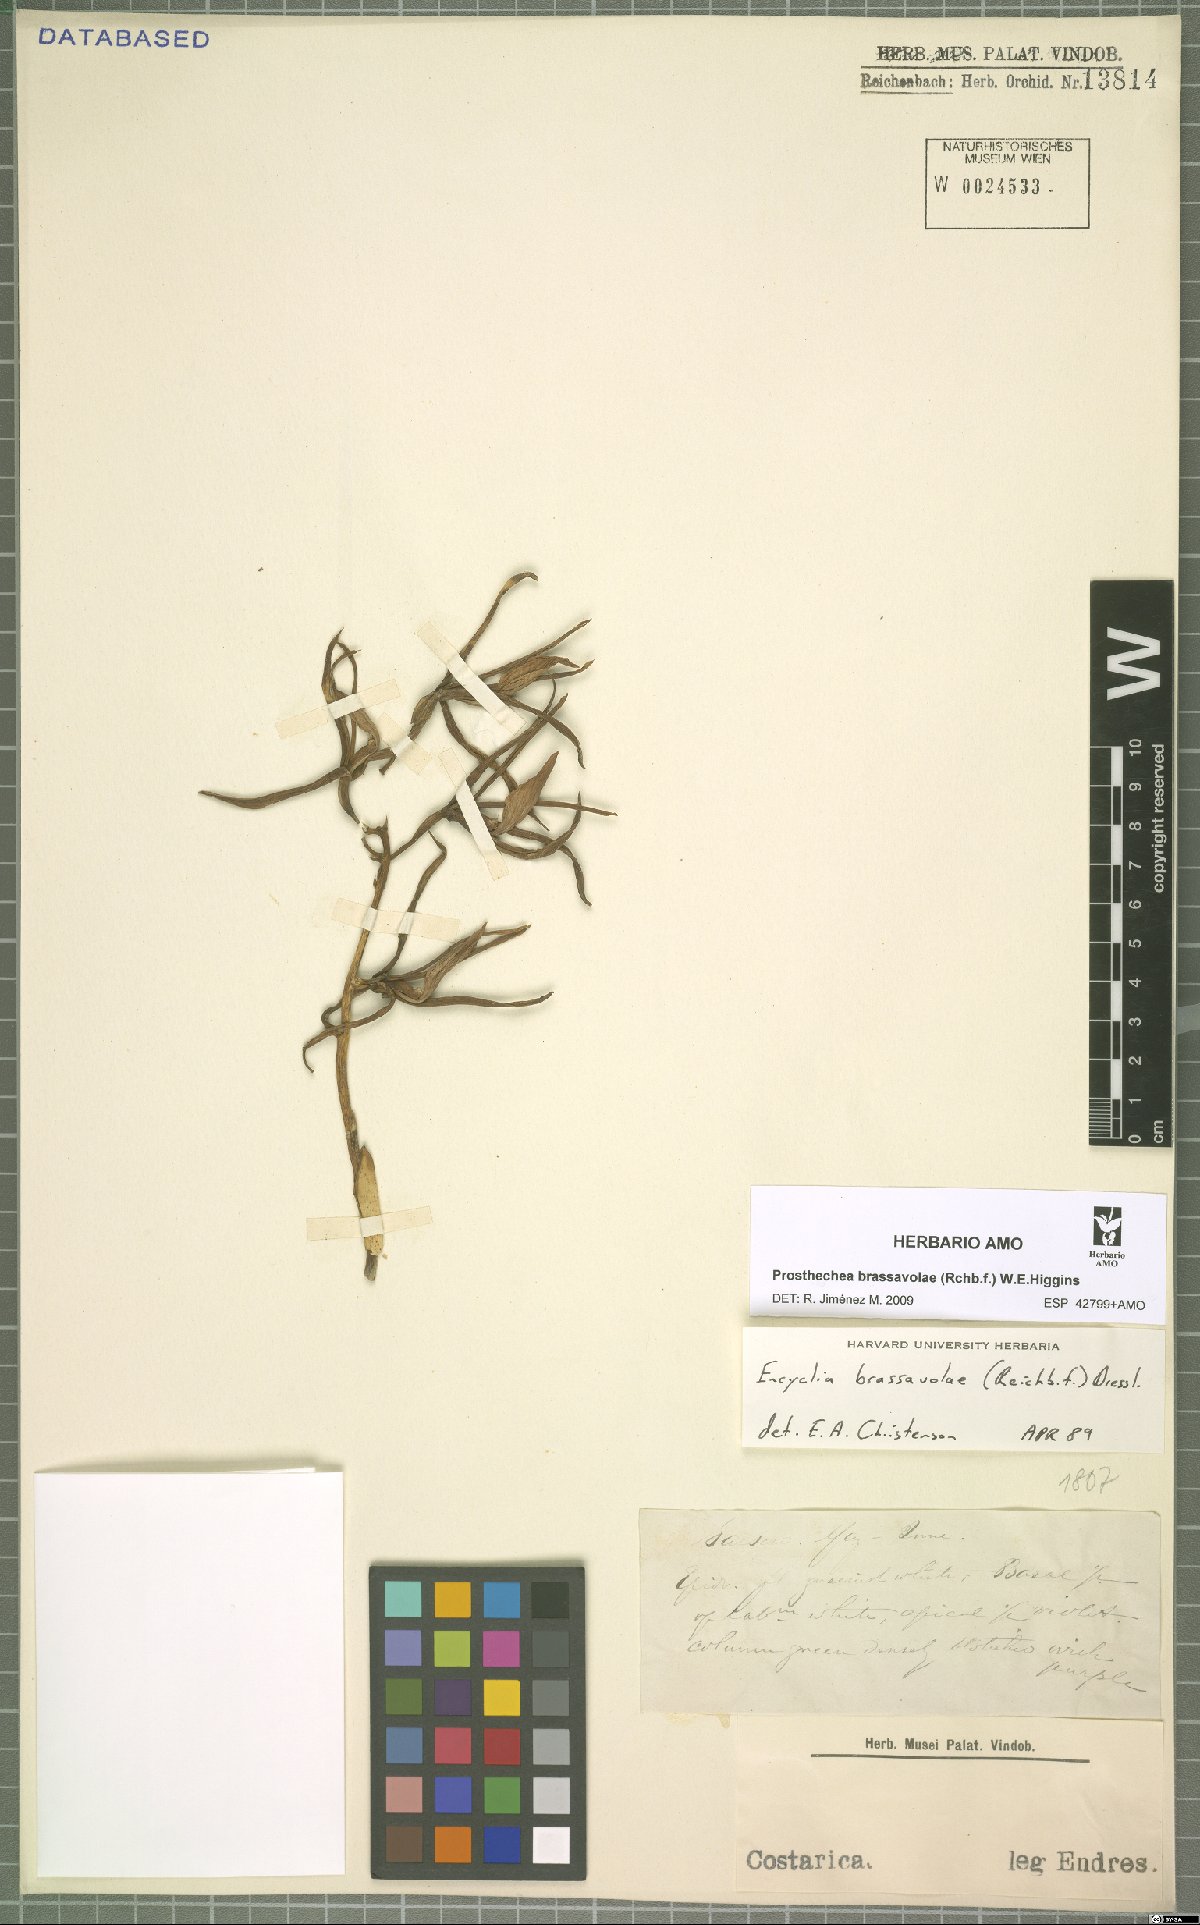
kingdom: Plantae
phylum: Tracheophyta
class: Liliopsida
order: Asparagales
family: Orchidaceae
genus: Prosthechea
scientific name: Prosthechea brassavolae
